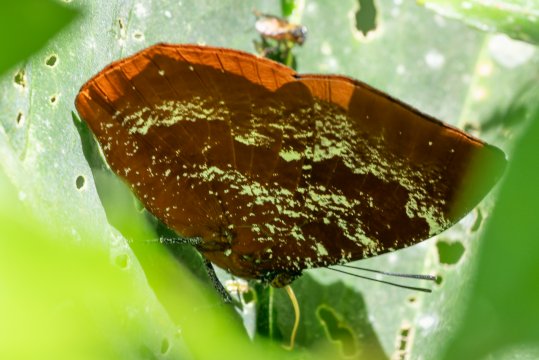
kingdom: Animalia
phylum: Arthropoda
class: Insecta
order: Lepidoptera
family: Nymphalidae
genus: Memphis
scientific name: Memphis
